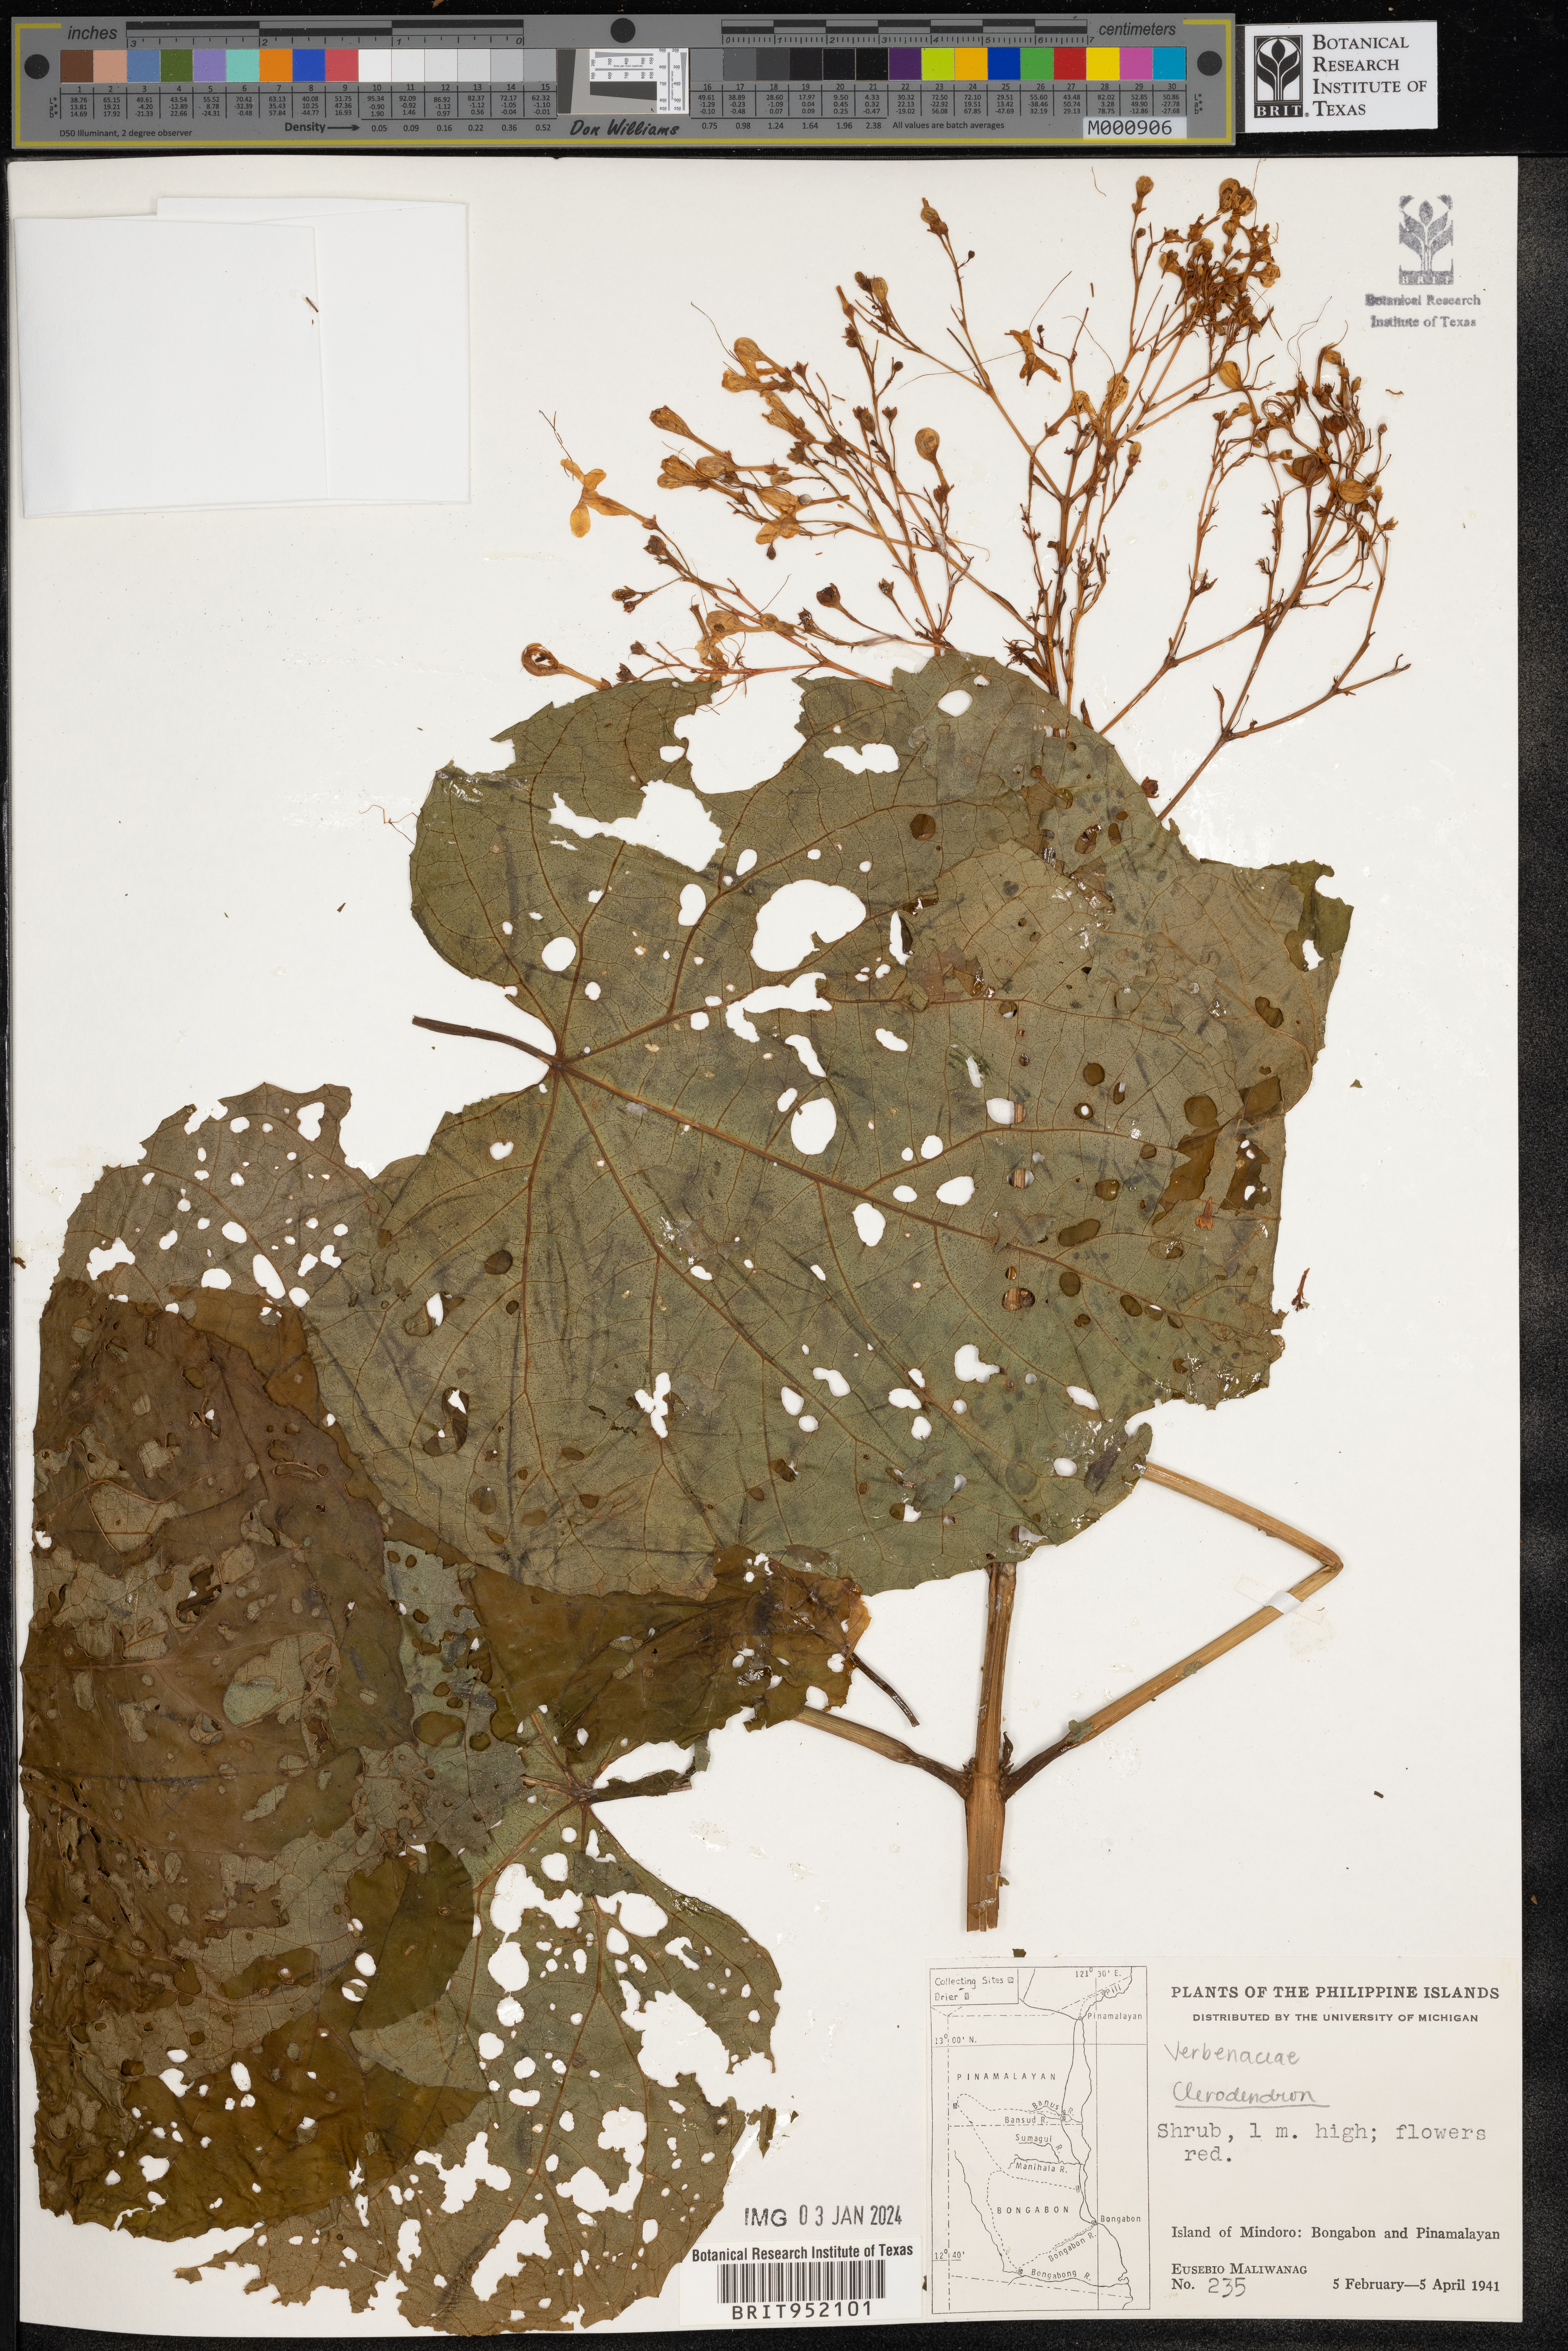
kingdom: Plantae
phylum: Tracheophyta
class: Magnoliopsida
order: Lamiales
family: Lamiaceae
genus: Clerodendrum
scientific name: Clerodendrum
